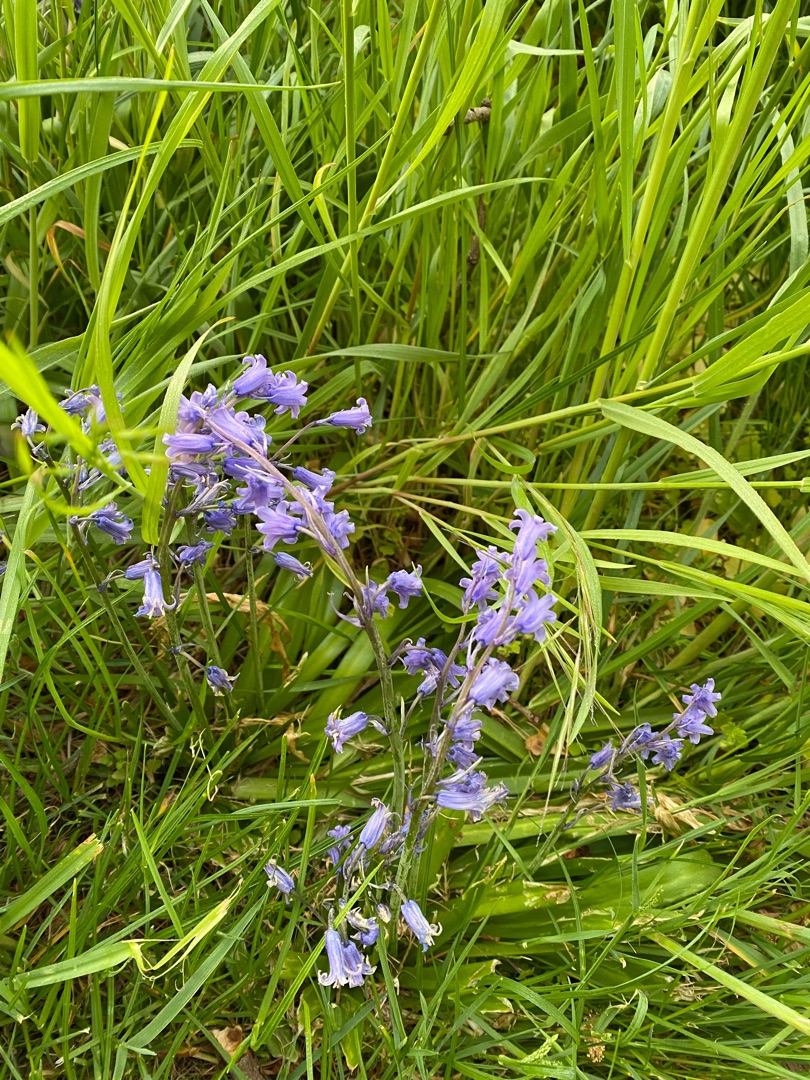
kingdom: Plantae
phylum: Tracheophyta
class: Liliopsida
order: Asparagales
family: Asparagaceae
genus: Hyacinthoides
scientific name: Hyacinthoides massartiana
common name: Hybrid-klokkeskilla
